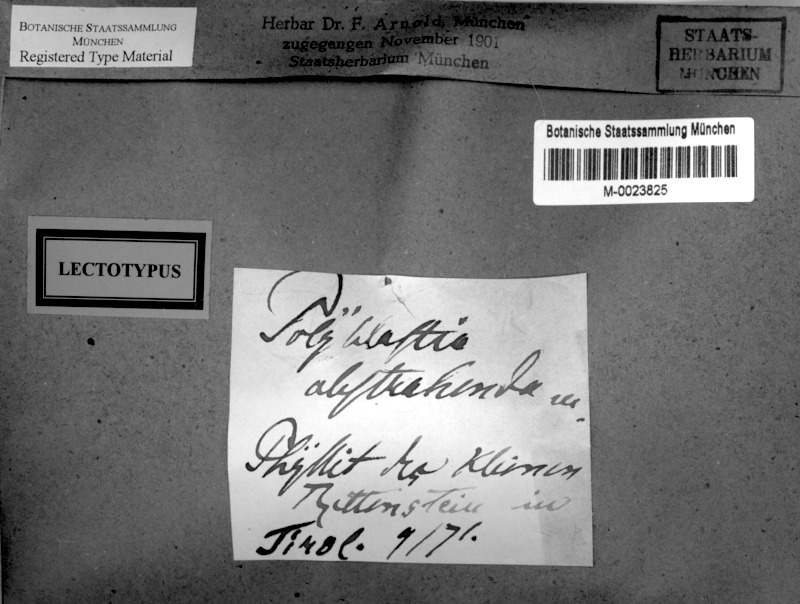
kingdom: Fungi
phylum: Ascomycota
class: Eurotiomycetes
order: Verrucariales
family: Verrucariaceae
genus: Polyblastia
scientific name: Polyblastia cupularis
